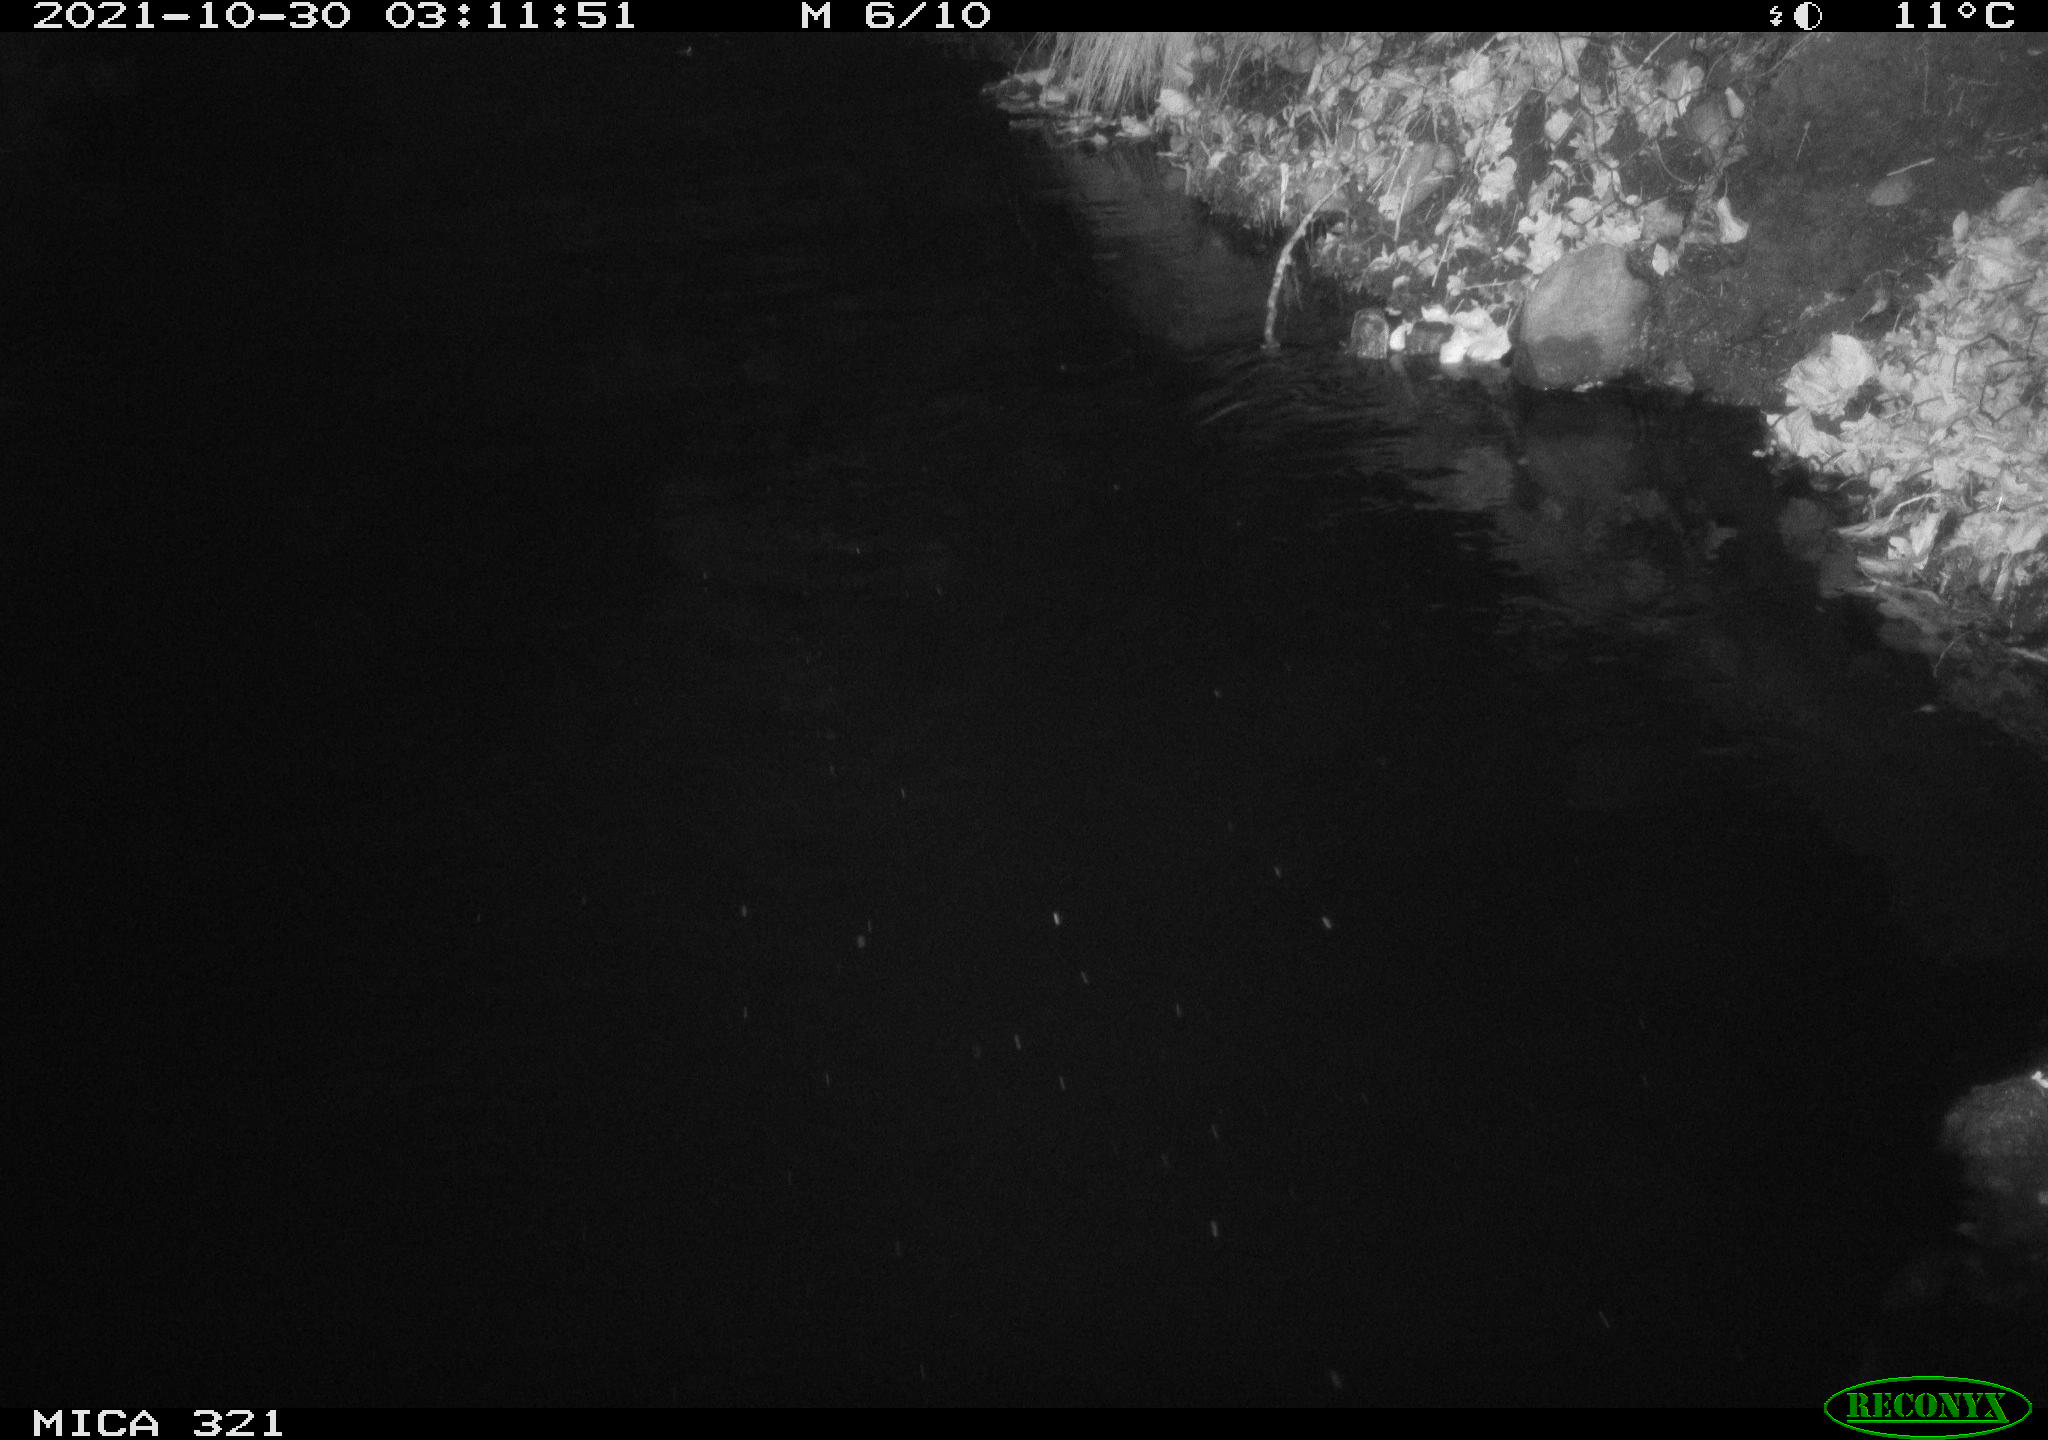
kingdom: Animalia
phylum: Chordata
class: Mammalia
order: Rodentia
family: Muridae
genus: Rattus
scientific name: Rattus norvegicus
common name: Brown rat
